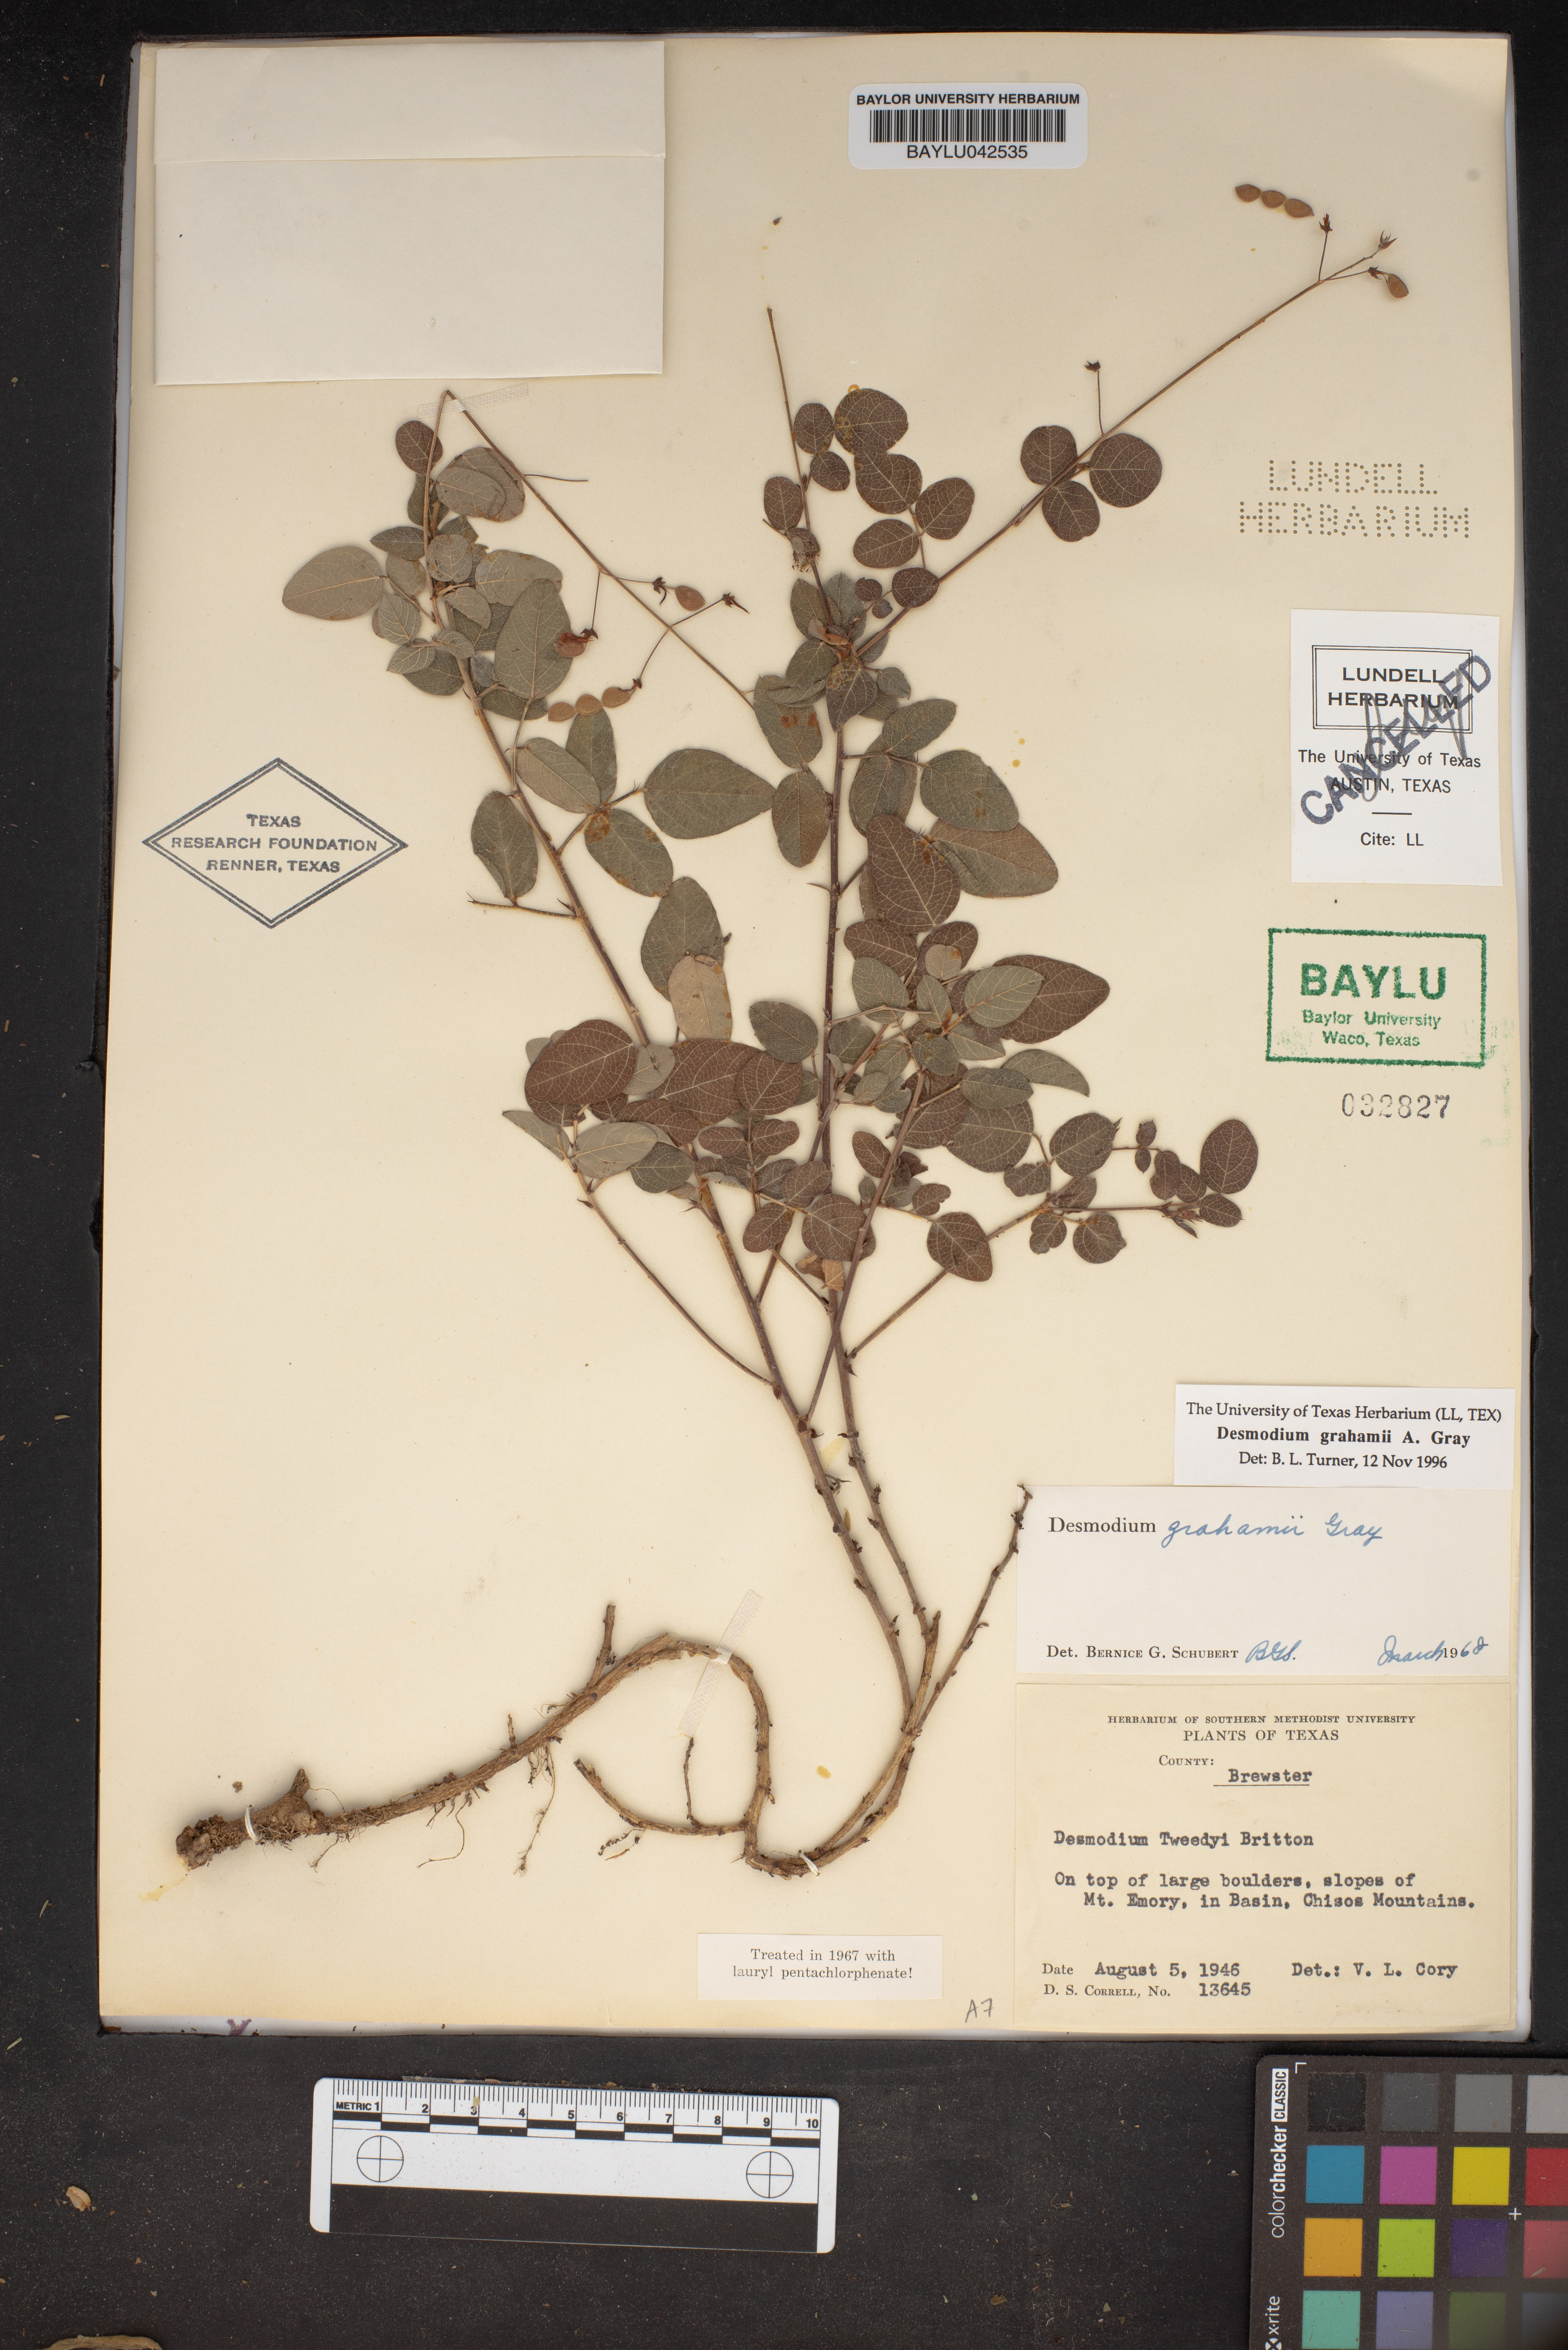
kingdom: Plantae
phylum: Tracheophyta
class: Magnoliopsida
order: Fabales
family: Fabaceae
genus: Desmodium
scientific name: Desmodium grahamii
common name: Graham's tick-trefoil
